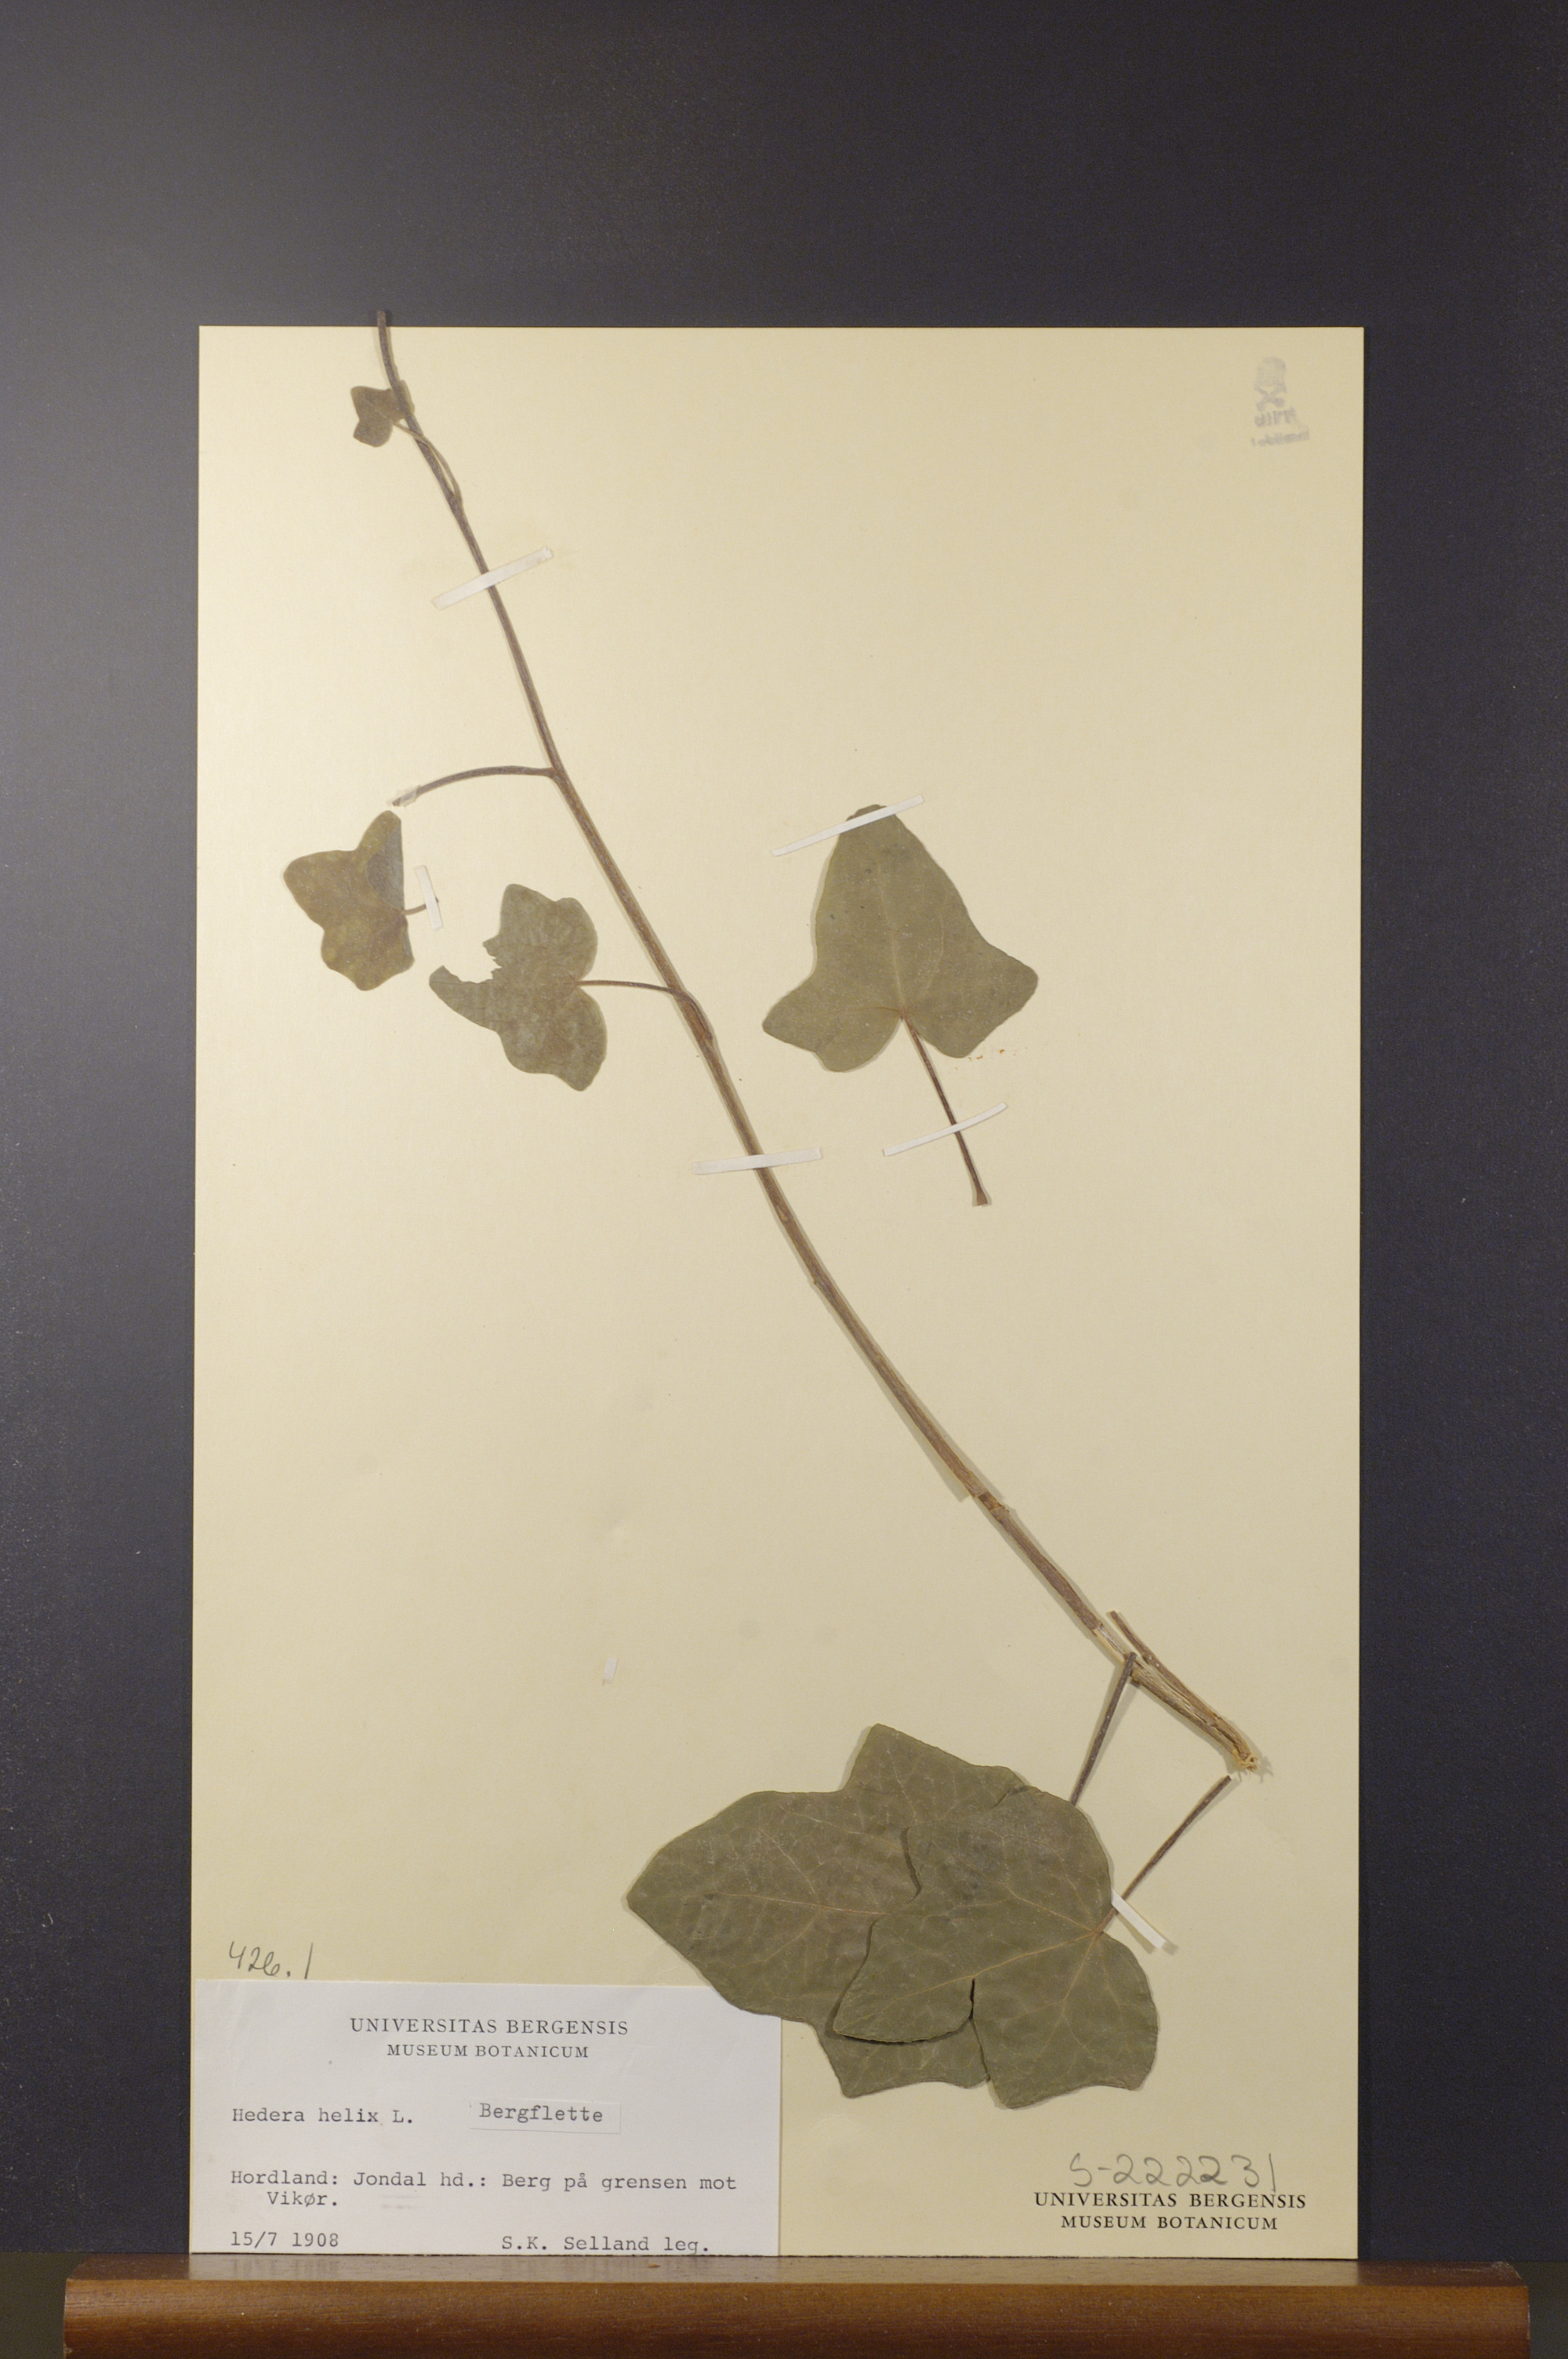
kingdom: Plantae
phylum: Tracheophyta
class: Magnoliopsida
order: Apiales
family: Araliaceae
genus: Hedera
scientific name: Hedera helix
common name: Ivy
